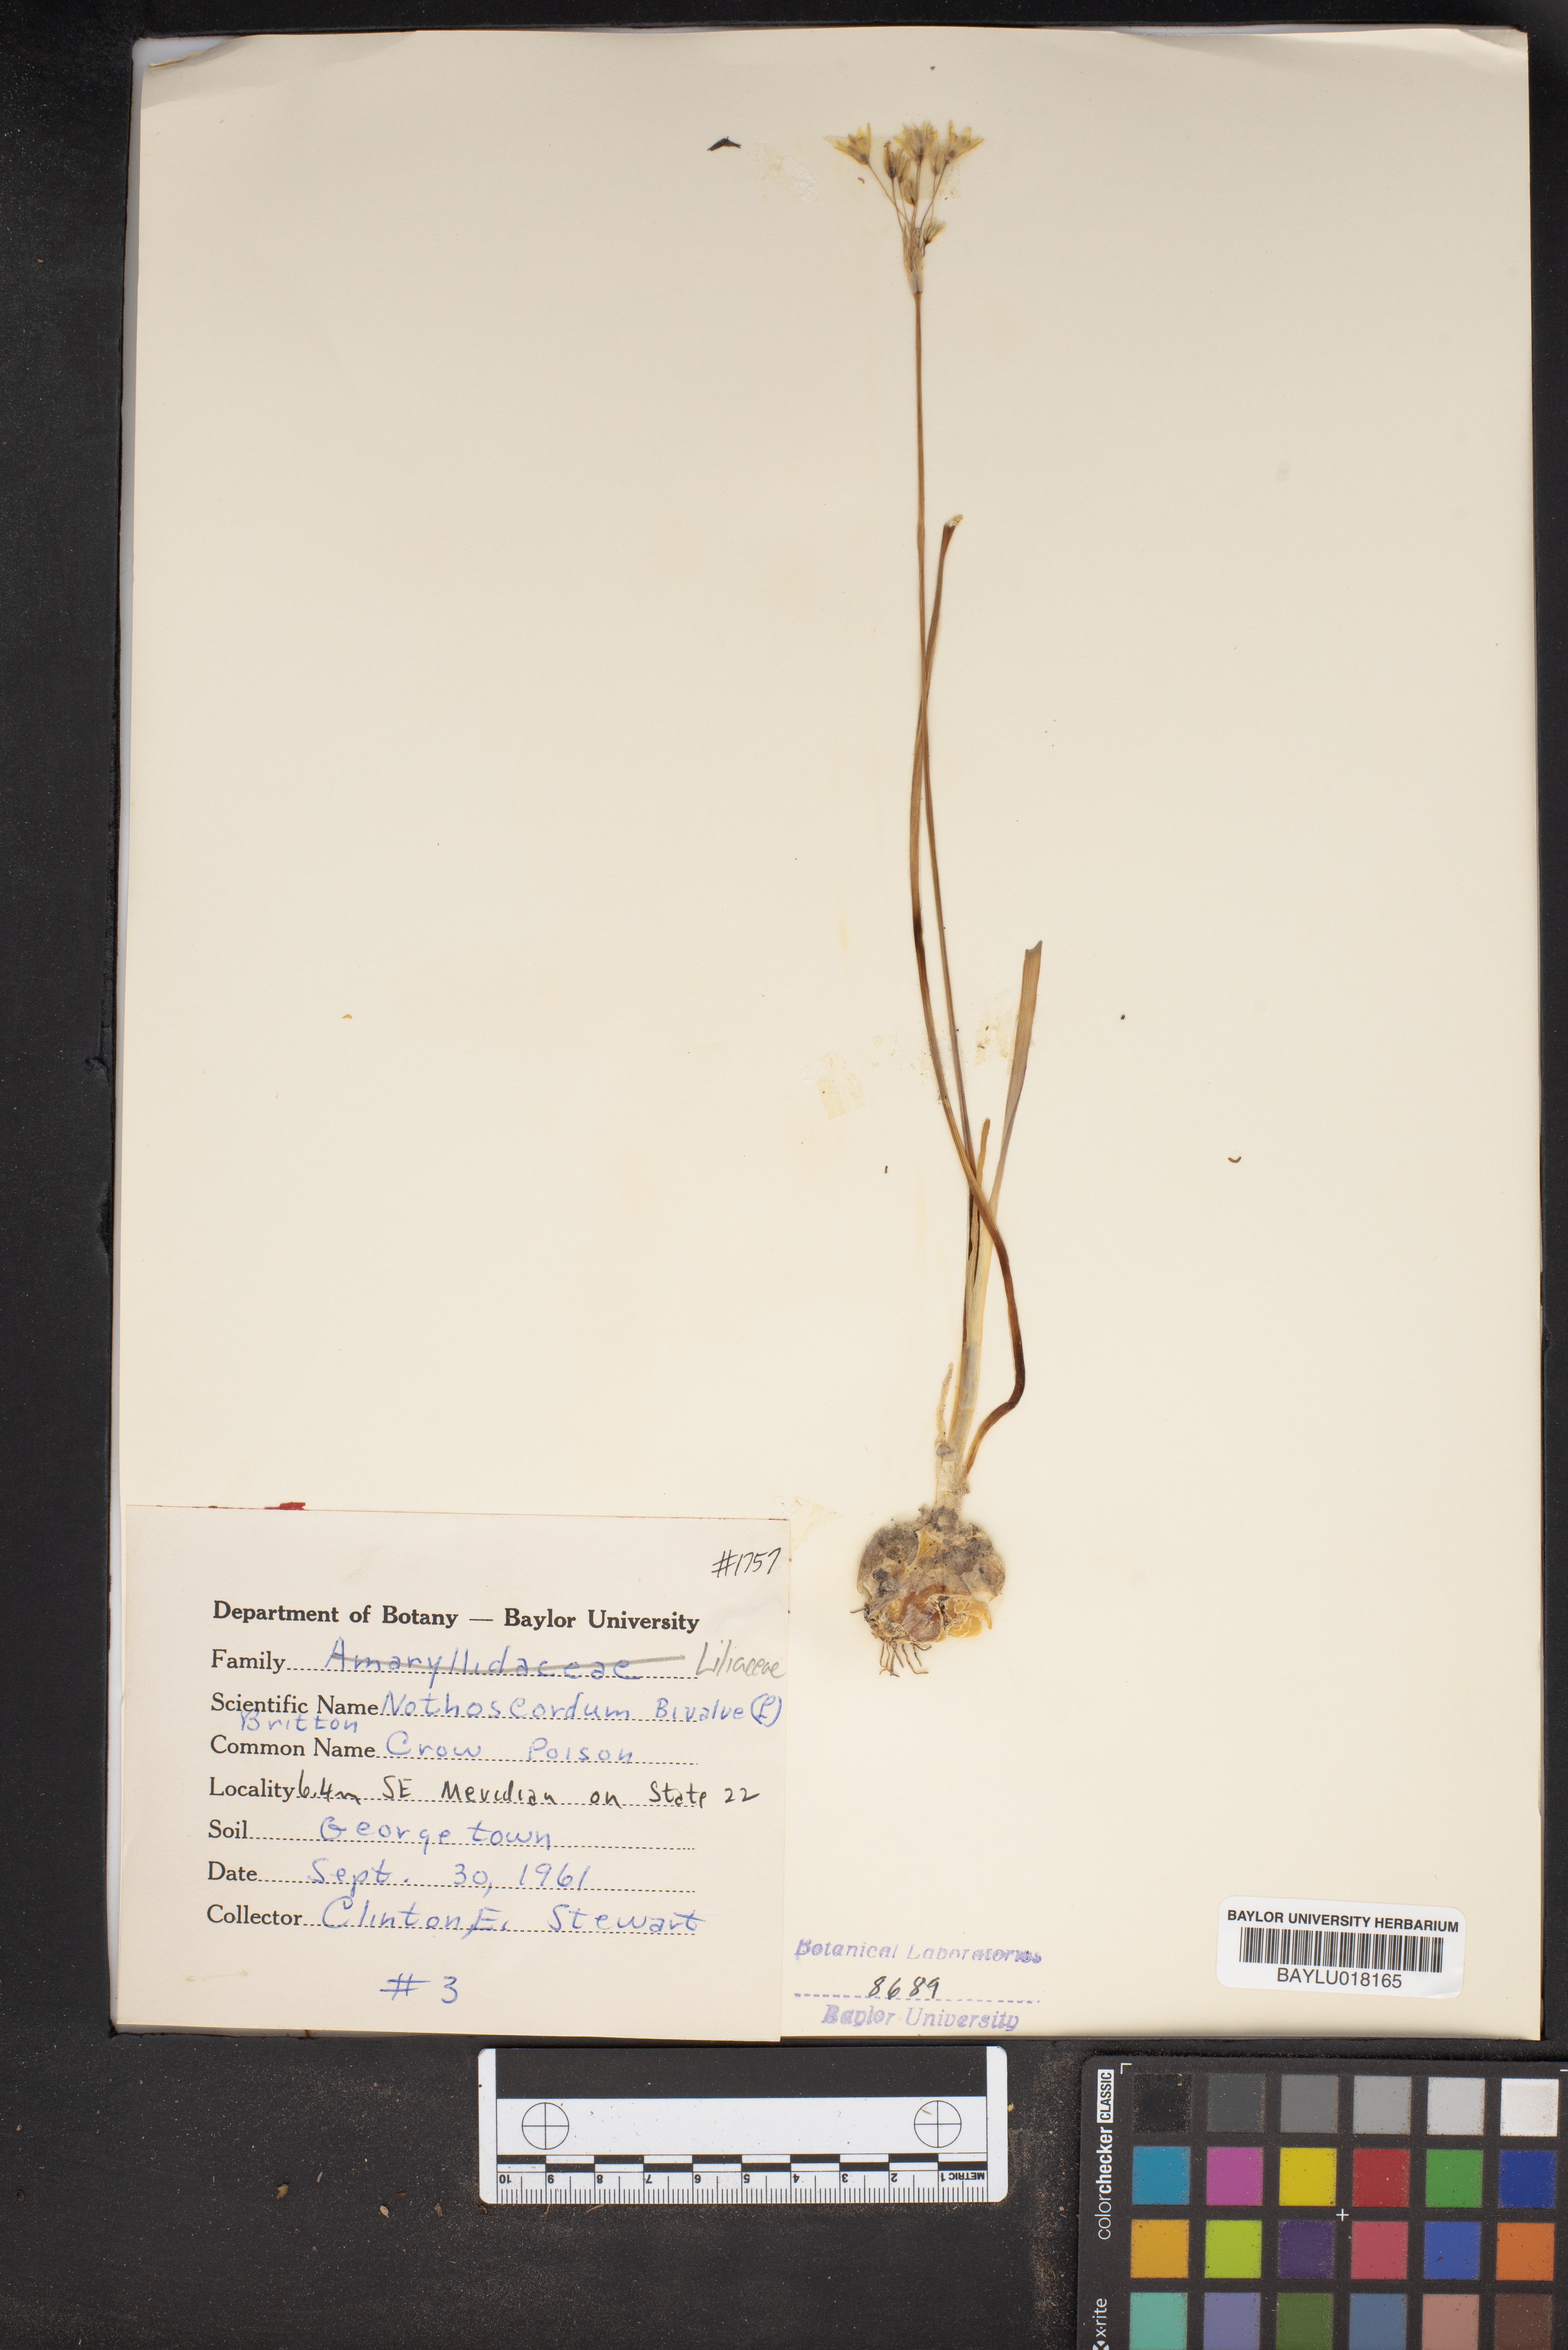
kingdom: Plantae
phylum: Tracheophyta
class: Liliopsida
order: Asparagales
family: Amaryllidaceae
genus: Nothoscordum
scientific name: Nothoscordum bivalve
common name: Crow-poison
